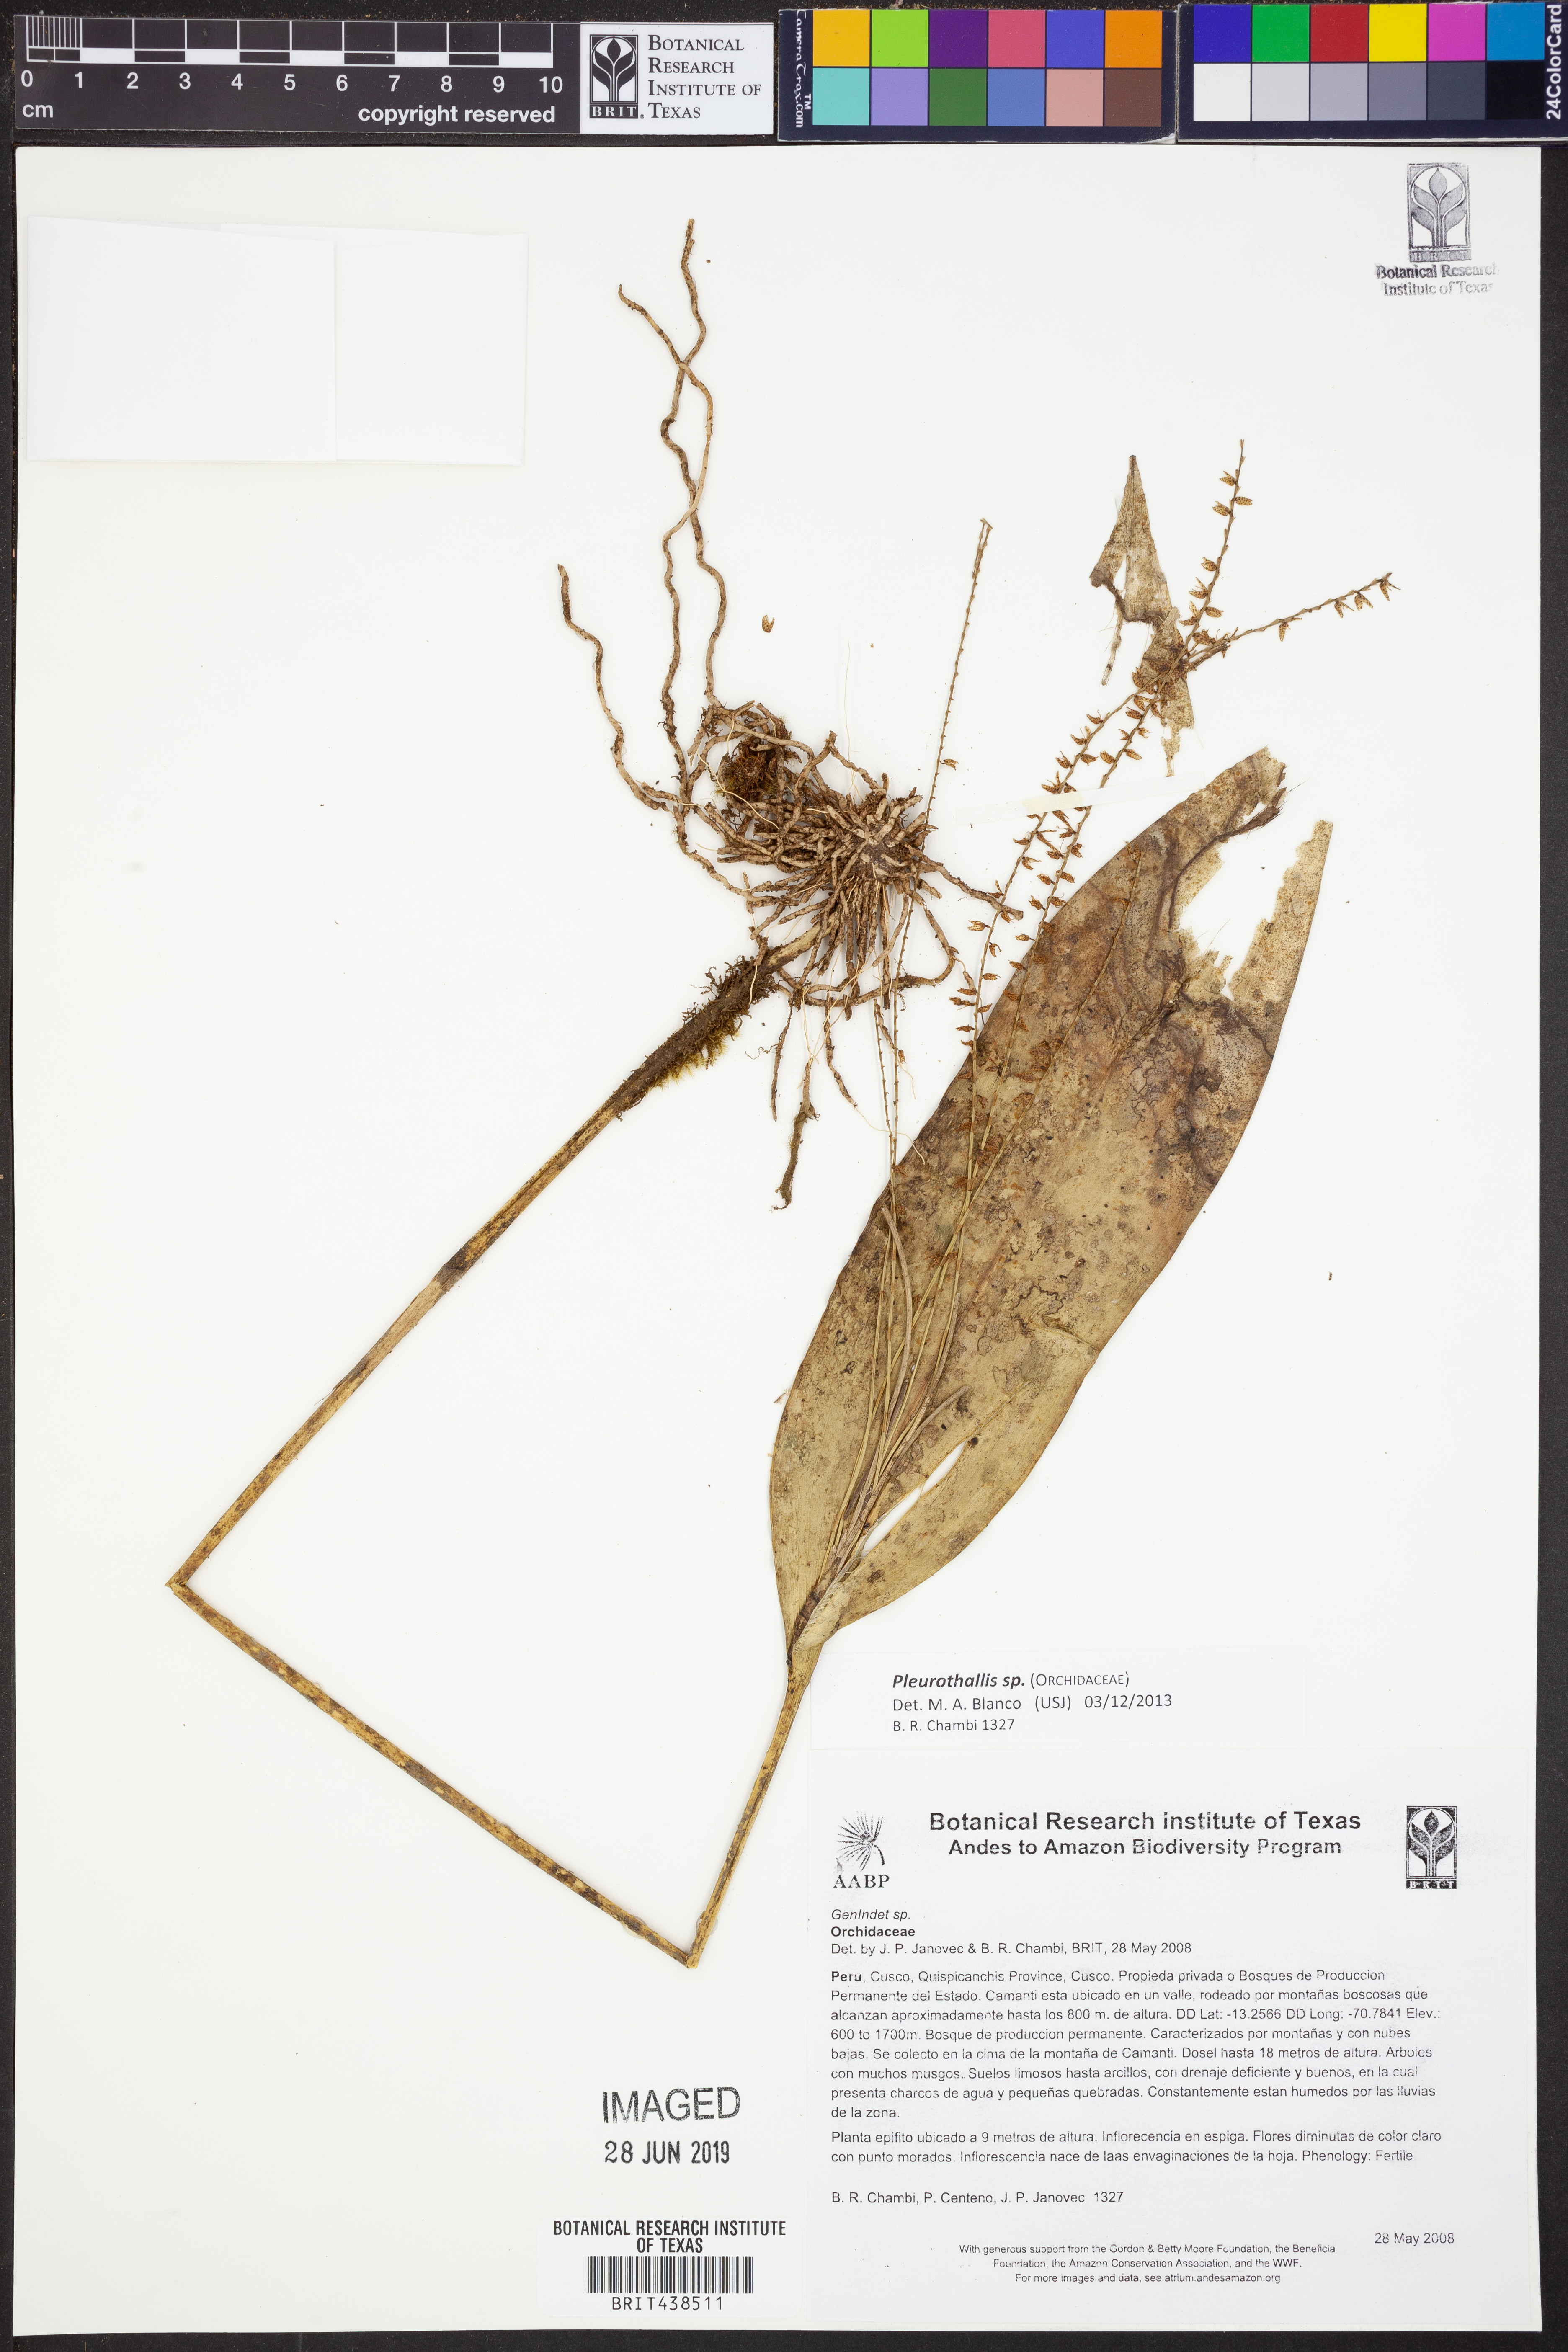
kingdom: Plantae
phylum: Tracheophyta
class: Liliopsida
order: Asparagales
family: Orchidaceae
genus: Pleurothallis
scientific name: Pleurothallis
